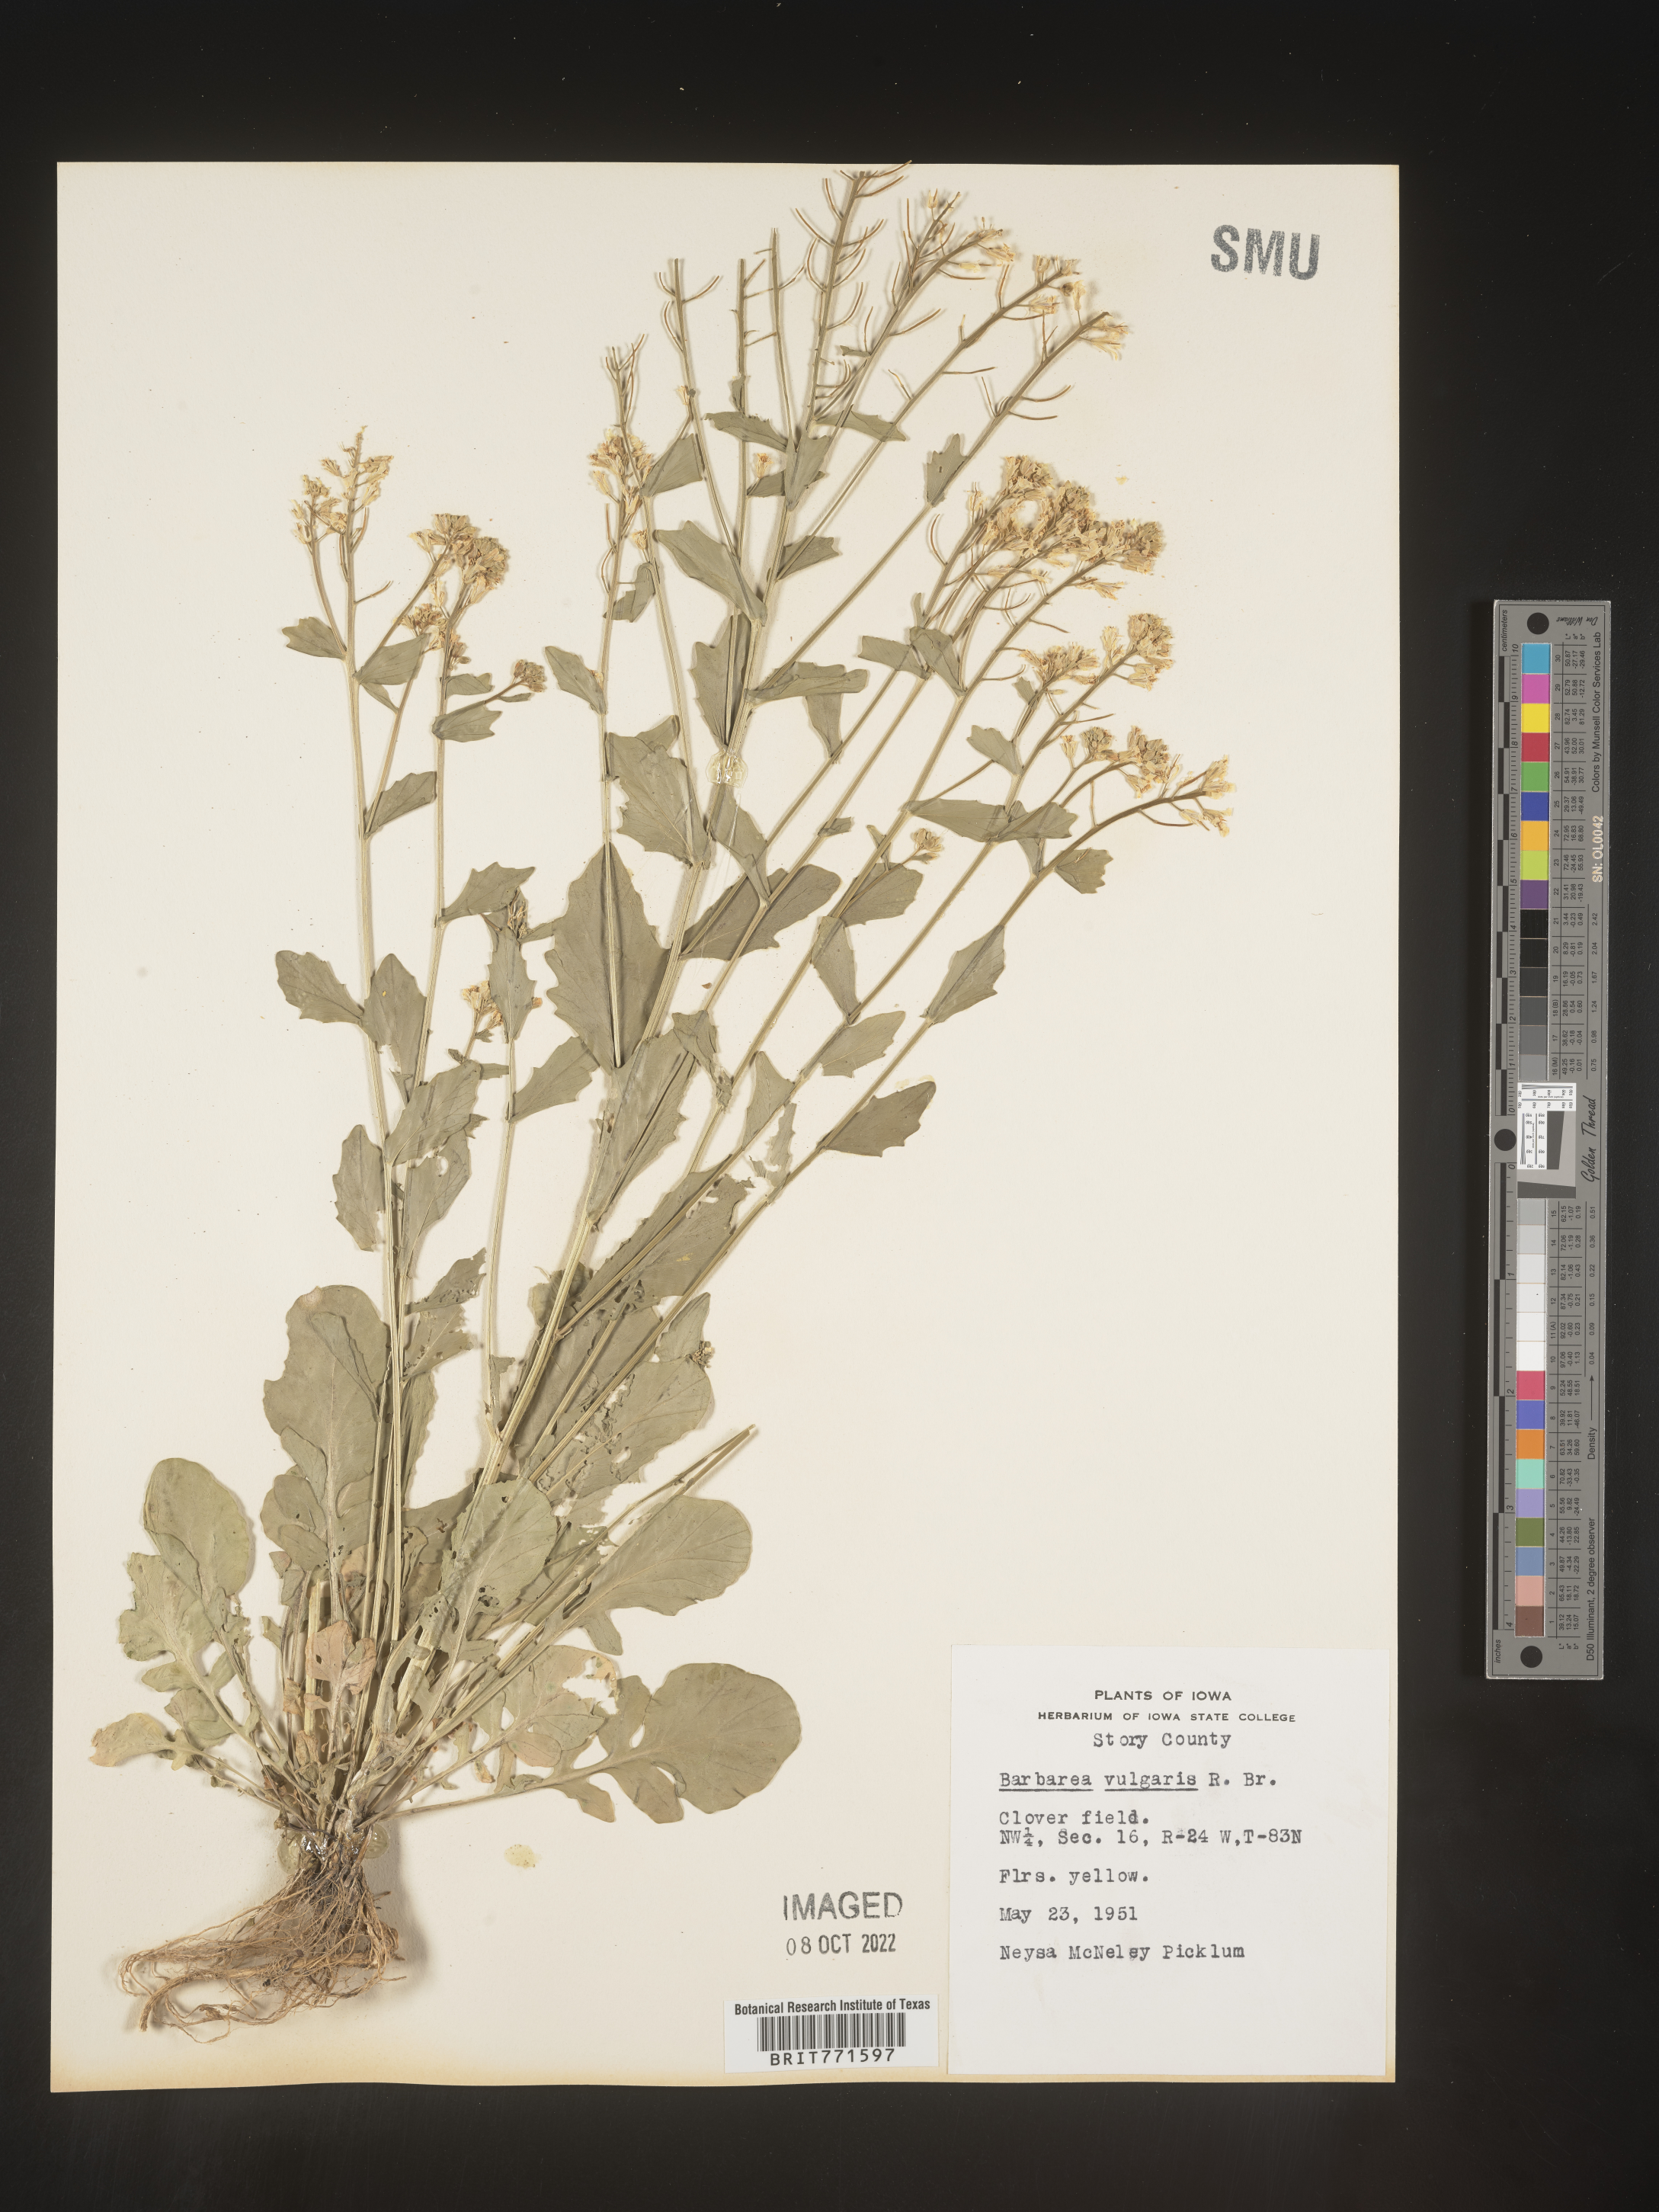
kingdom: Plantae
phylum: Tracheophyta
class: Magnoliopsida
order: Brassicales
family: Brassicaceae
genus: Barbarea
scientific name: Barbarea vulgaris
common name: Cressy-greens
